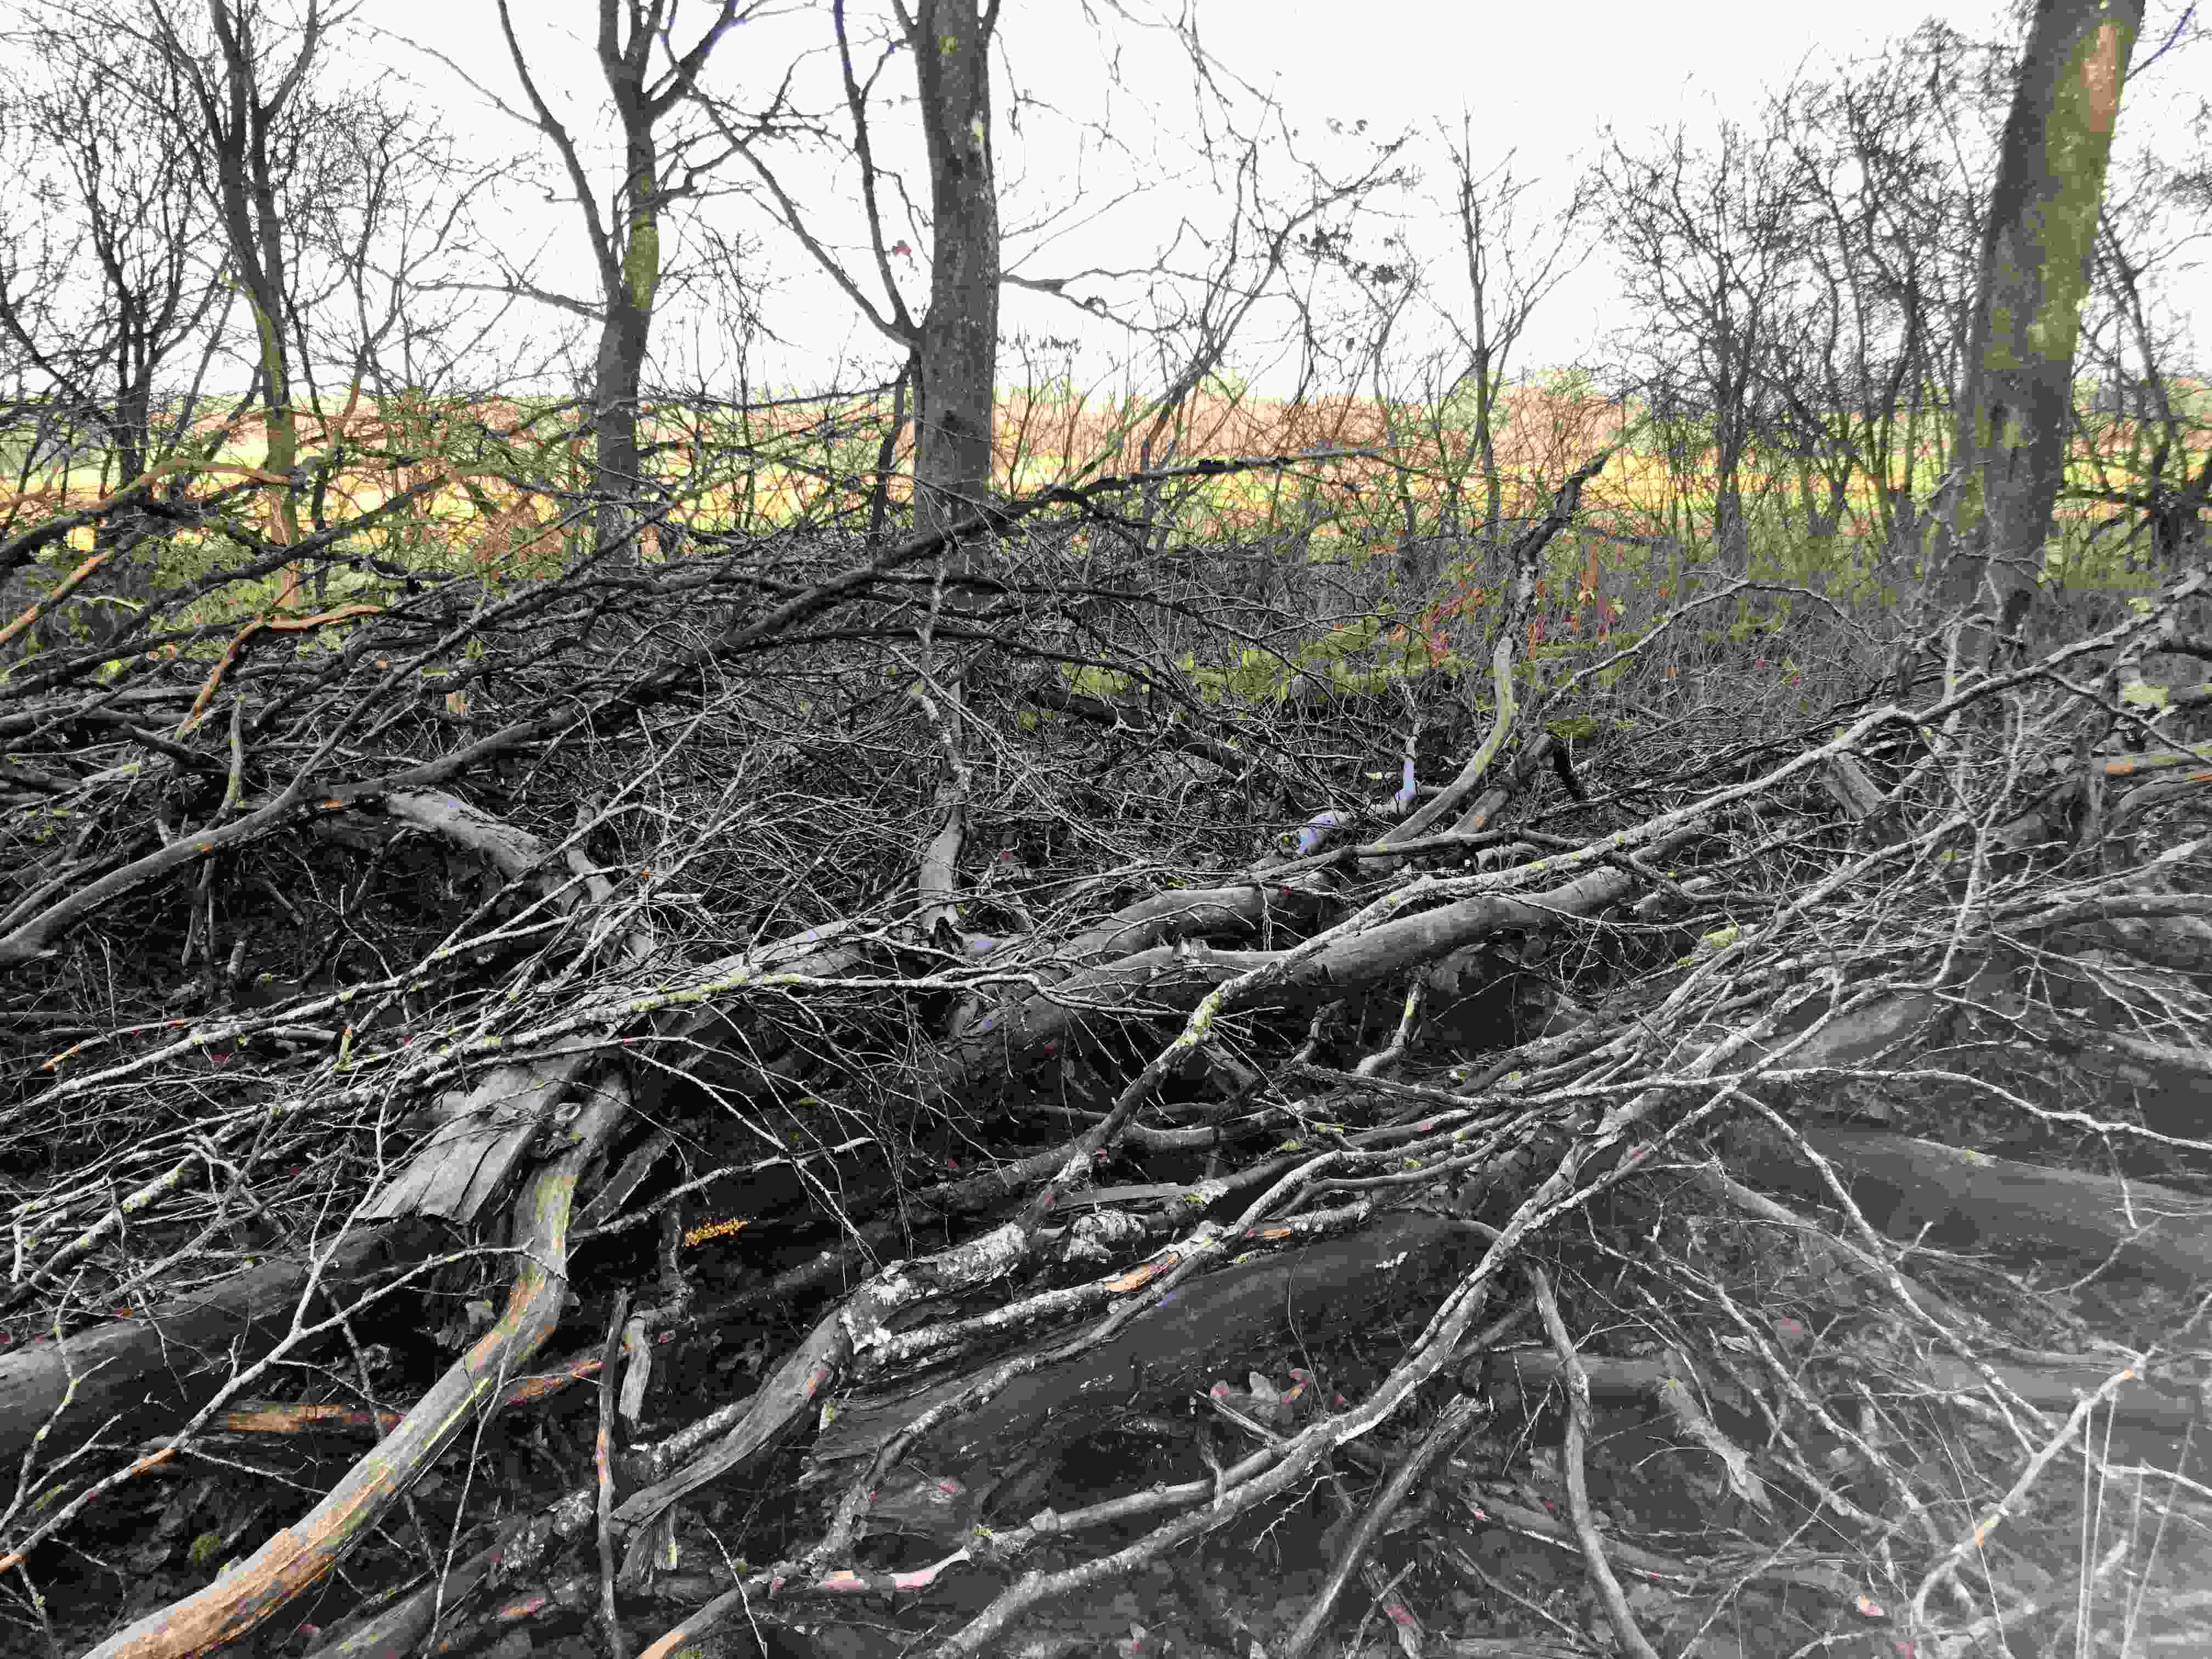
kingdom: Protozoa
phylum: Mycetozoa
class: Myxomycetes
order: Physarales
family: Physaraceae
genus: Badhamia
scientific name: Badhamia utricularis
